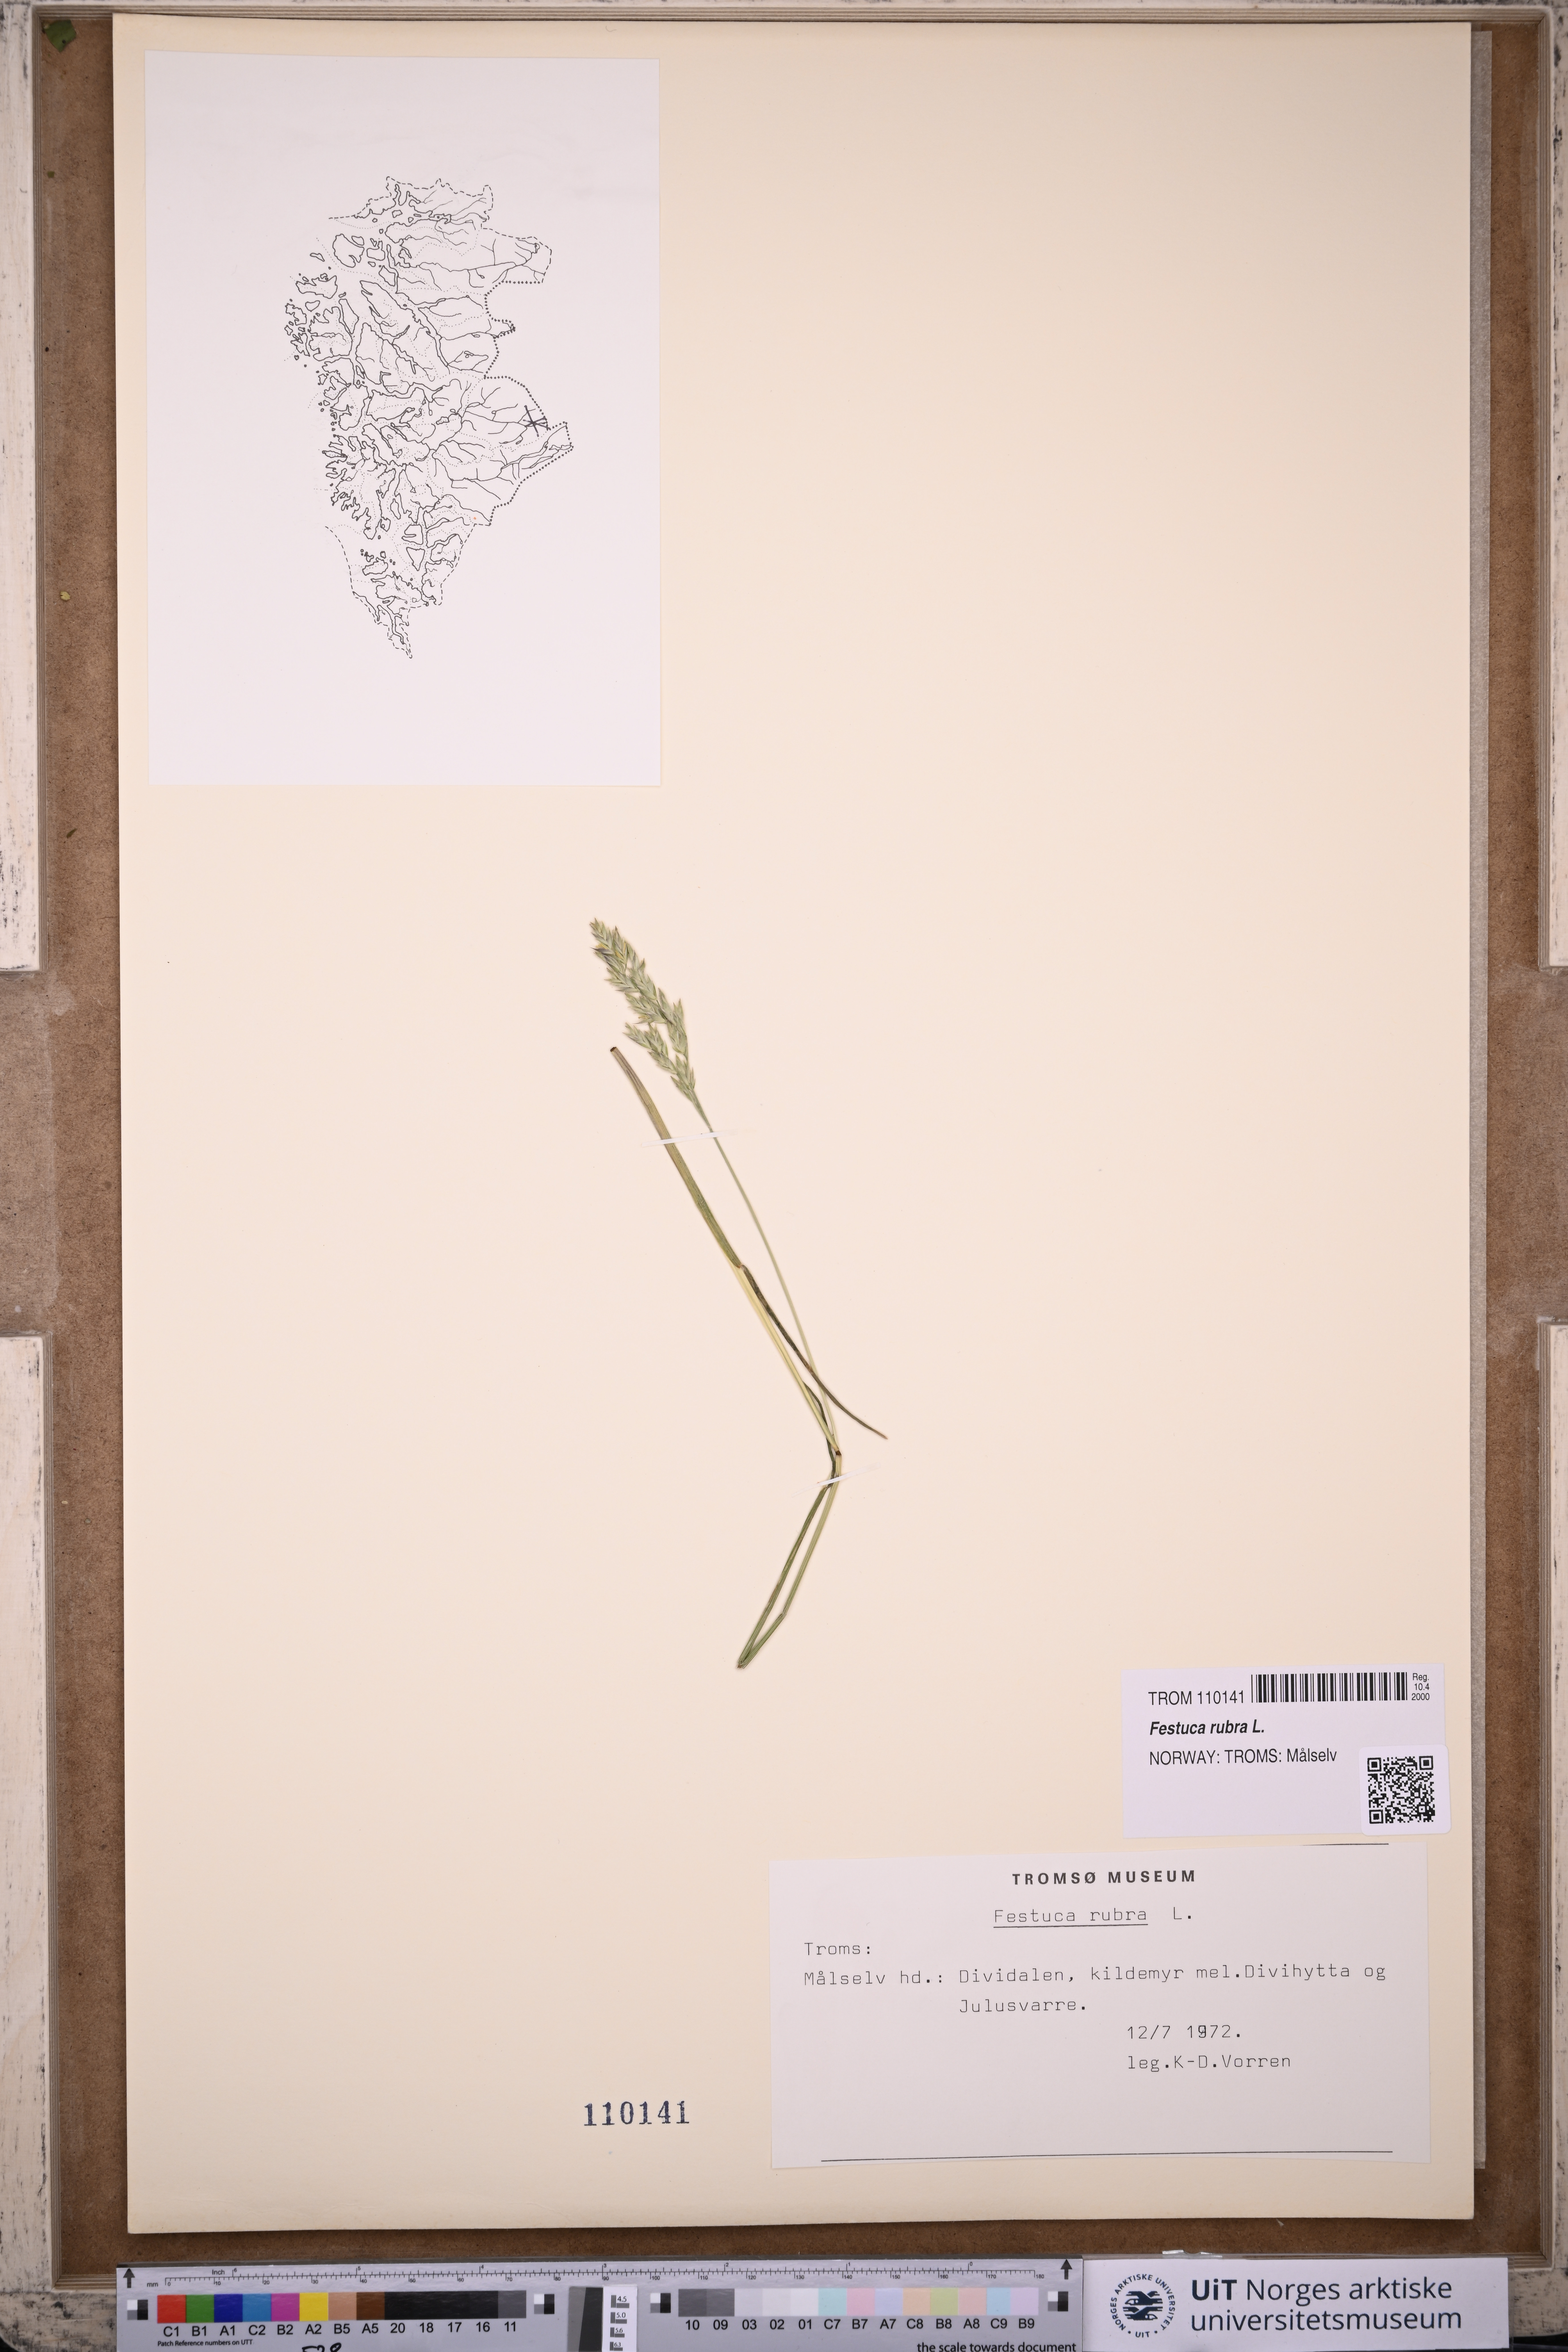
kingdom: Plantae
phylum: Tracheophyta
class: Liliopsida
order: Poales
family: Poaceae
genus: Festuca
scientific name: Festuca rubra
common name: Red fescue
